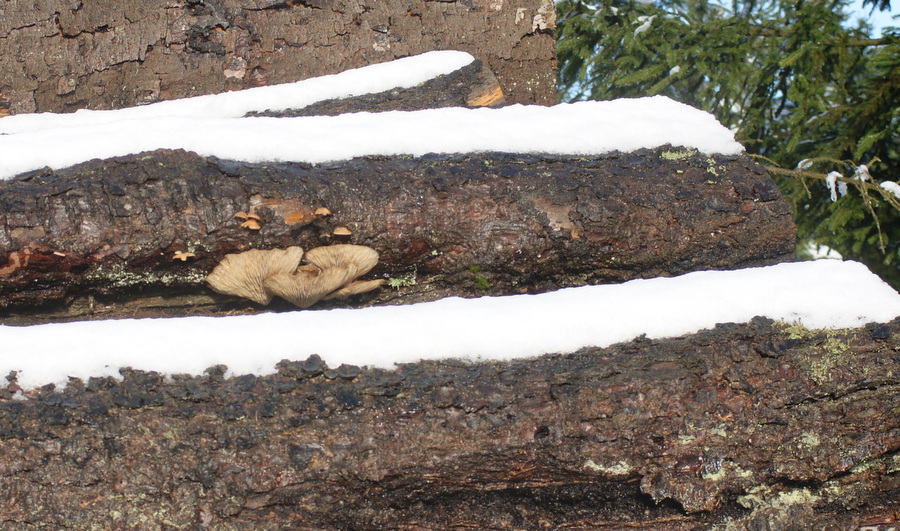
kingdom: Fungi
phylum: Basidiomycota
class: Agaricomycetes
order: Agaricales
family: Pleurotaceae
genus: Pleurotus
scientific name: Pleurotus ostreatus
